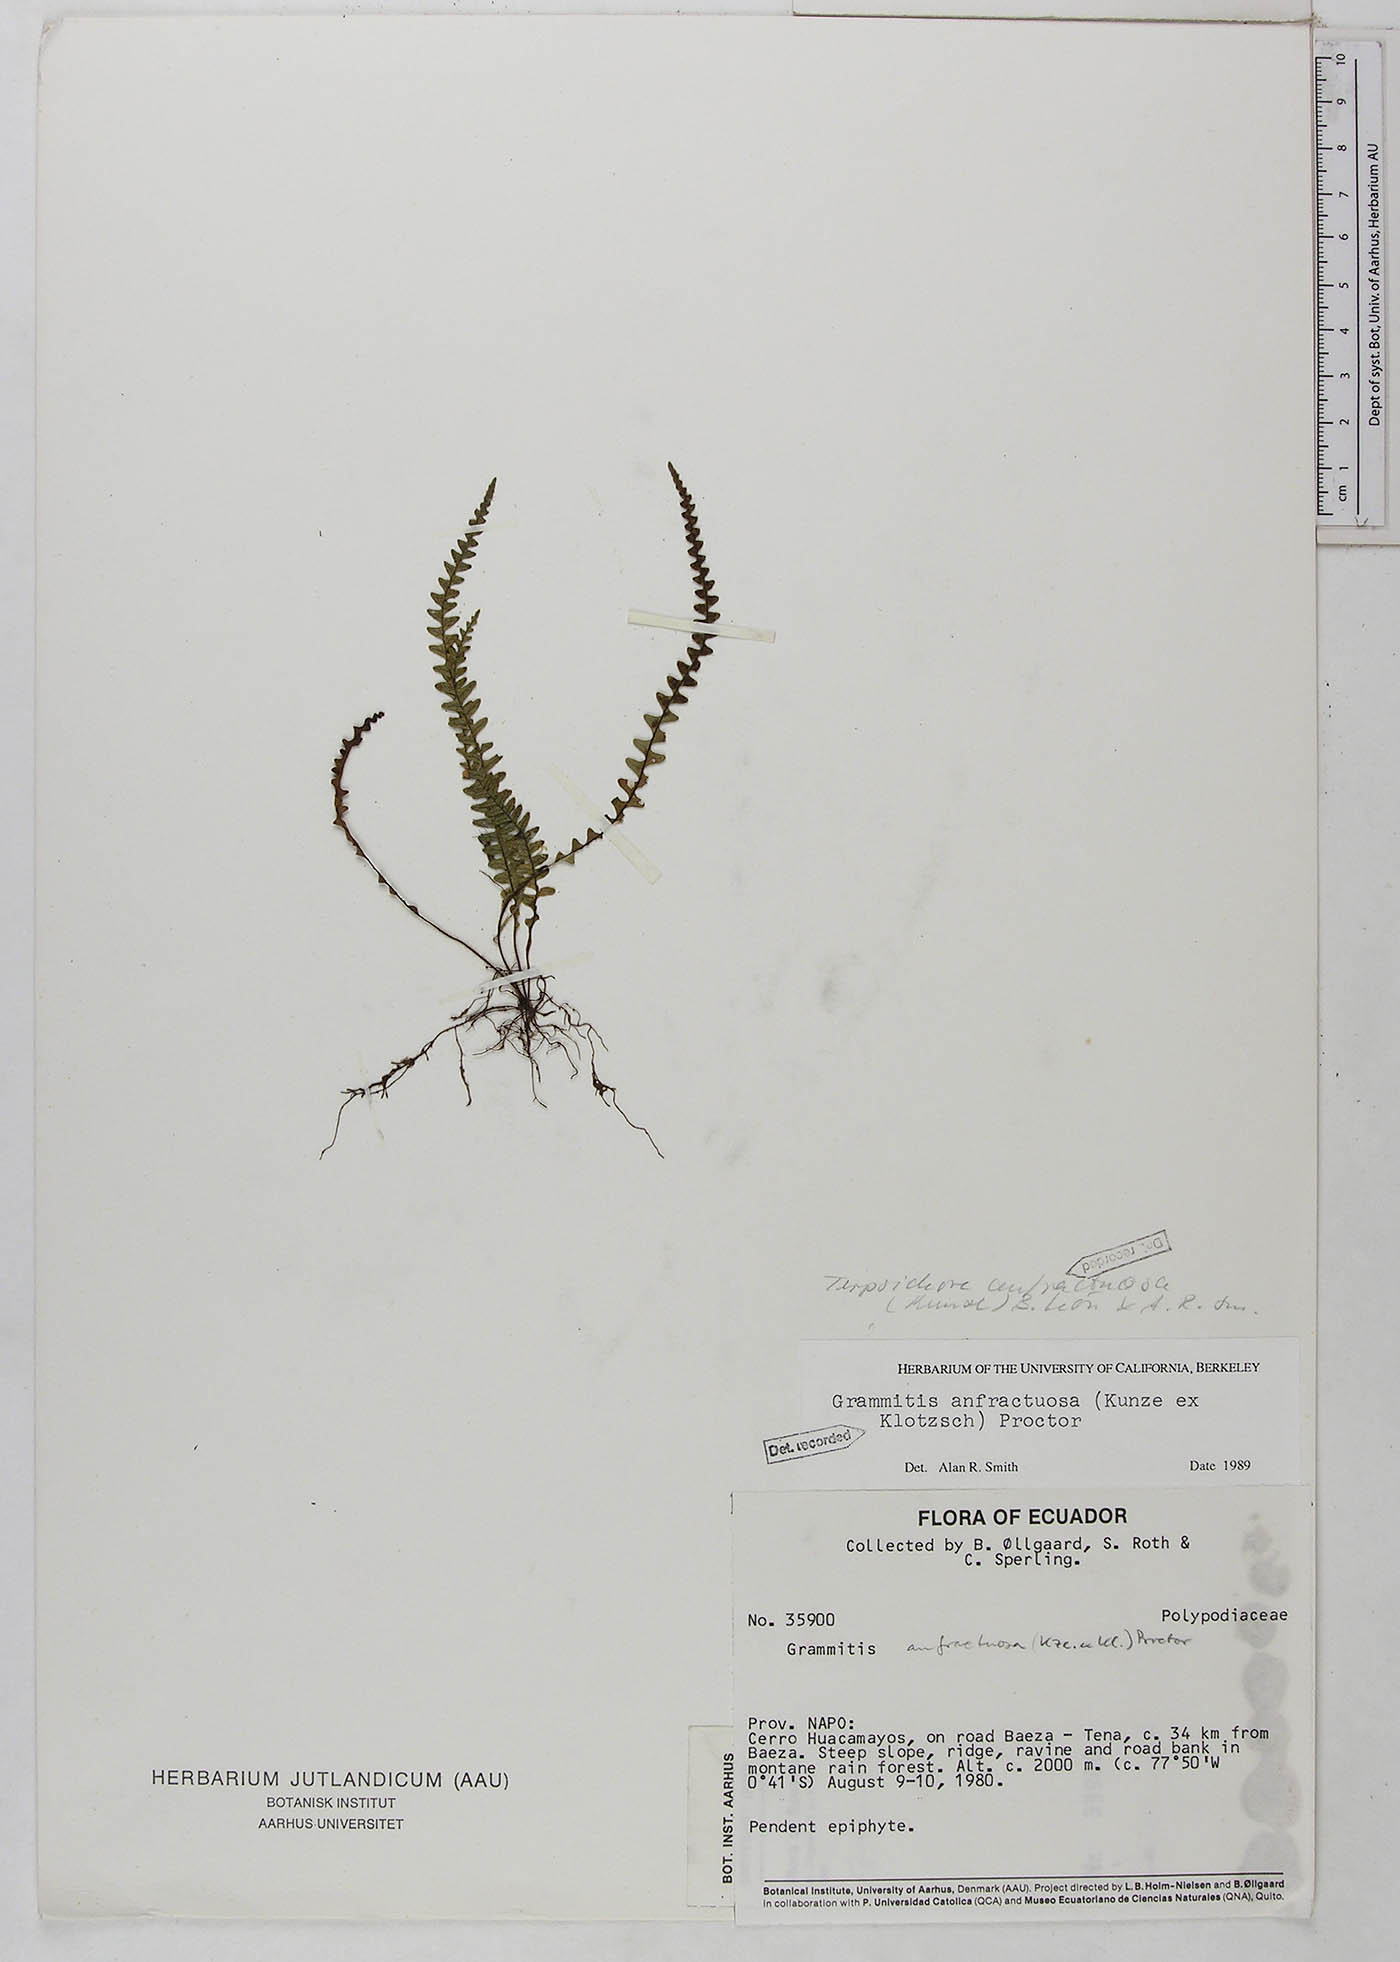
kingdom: Plantae
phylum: Tracheophyta
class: Polypodiopsida
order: Polypodiales
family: Polypodiaceae
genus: Ascogrammitis
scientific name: Ascogrammitis anfractuosa
